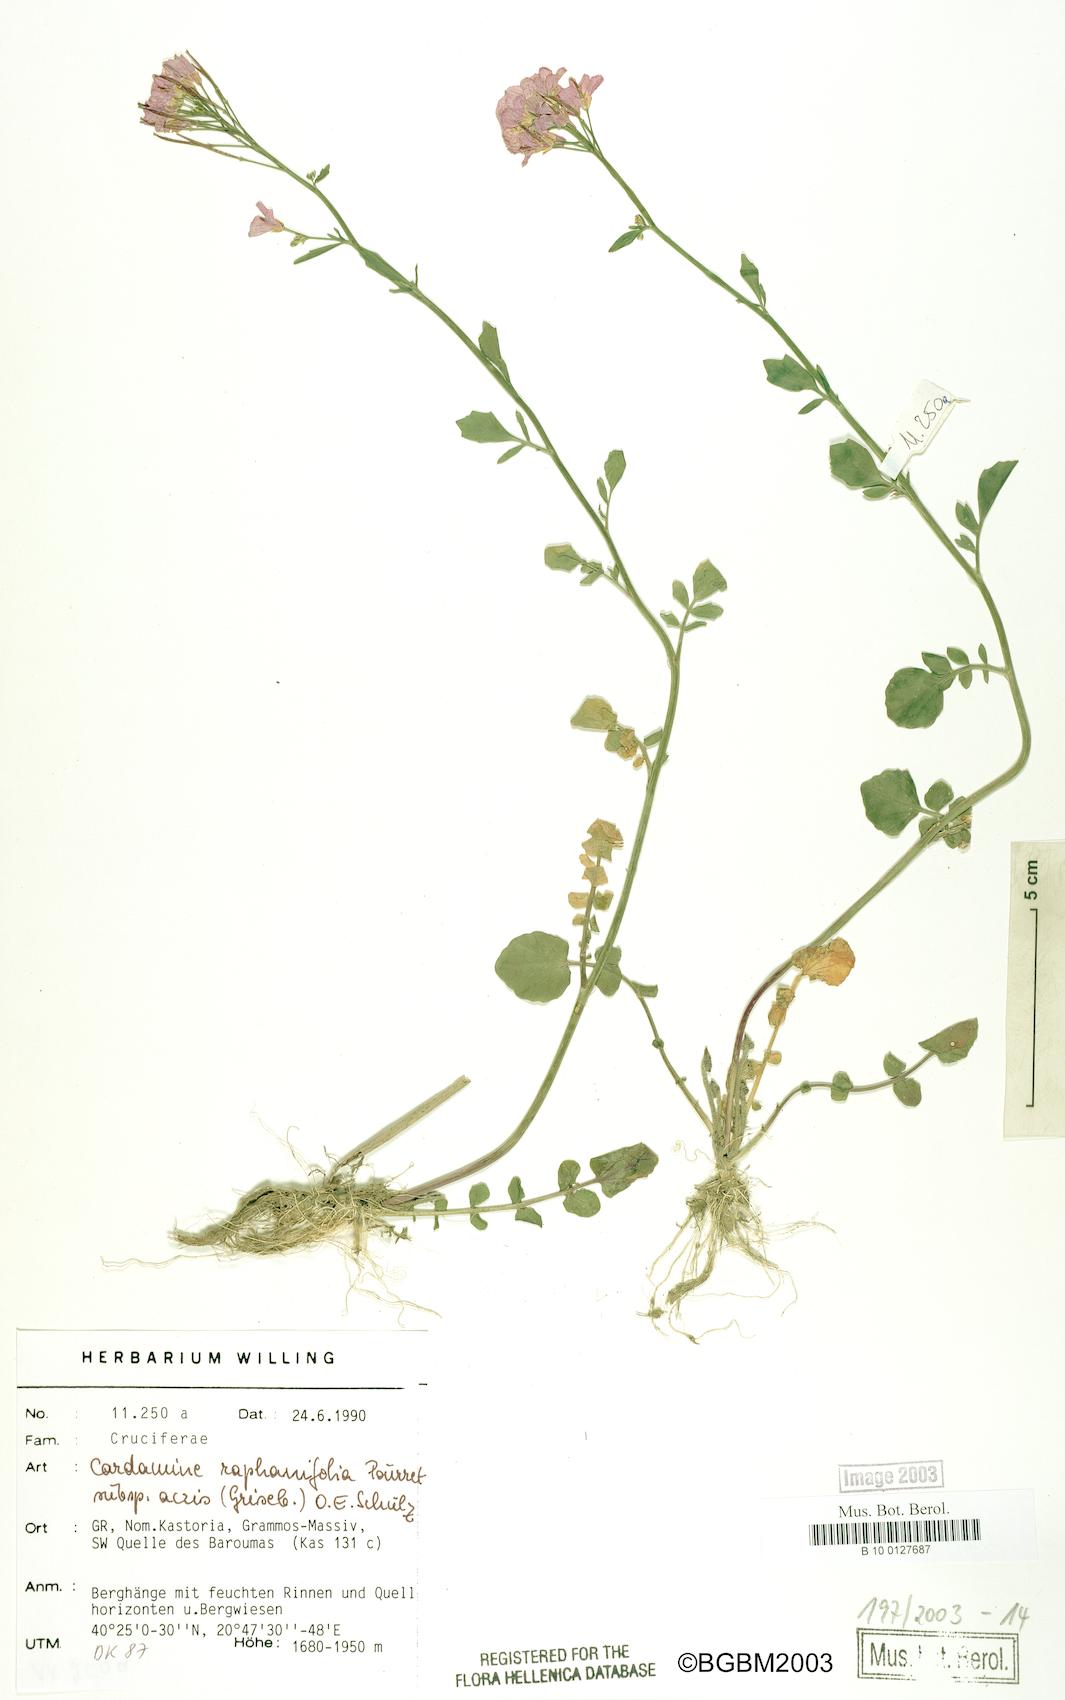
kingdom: Plantae
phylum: Tracheophyta
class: Magnoliopsida
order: Brassicales
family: Brassicaceae
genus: Cardamine
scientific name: Cardamine raphanifolia
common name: Greater cuckooflower
